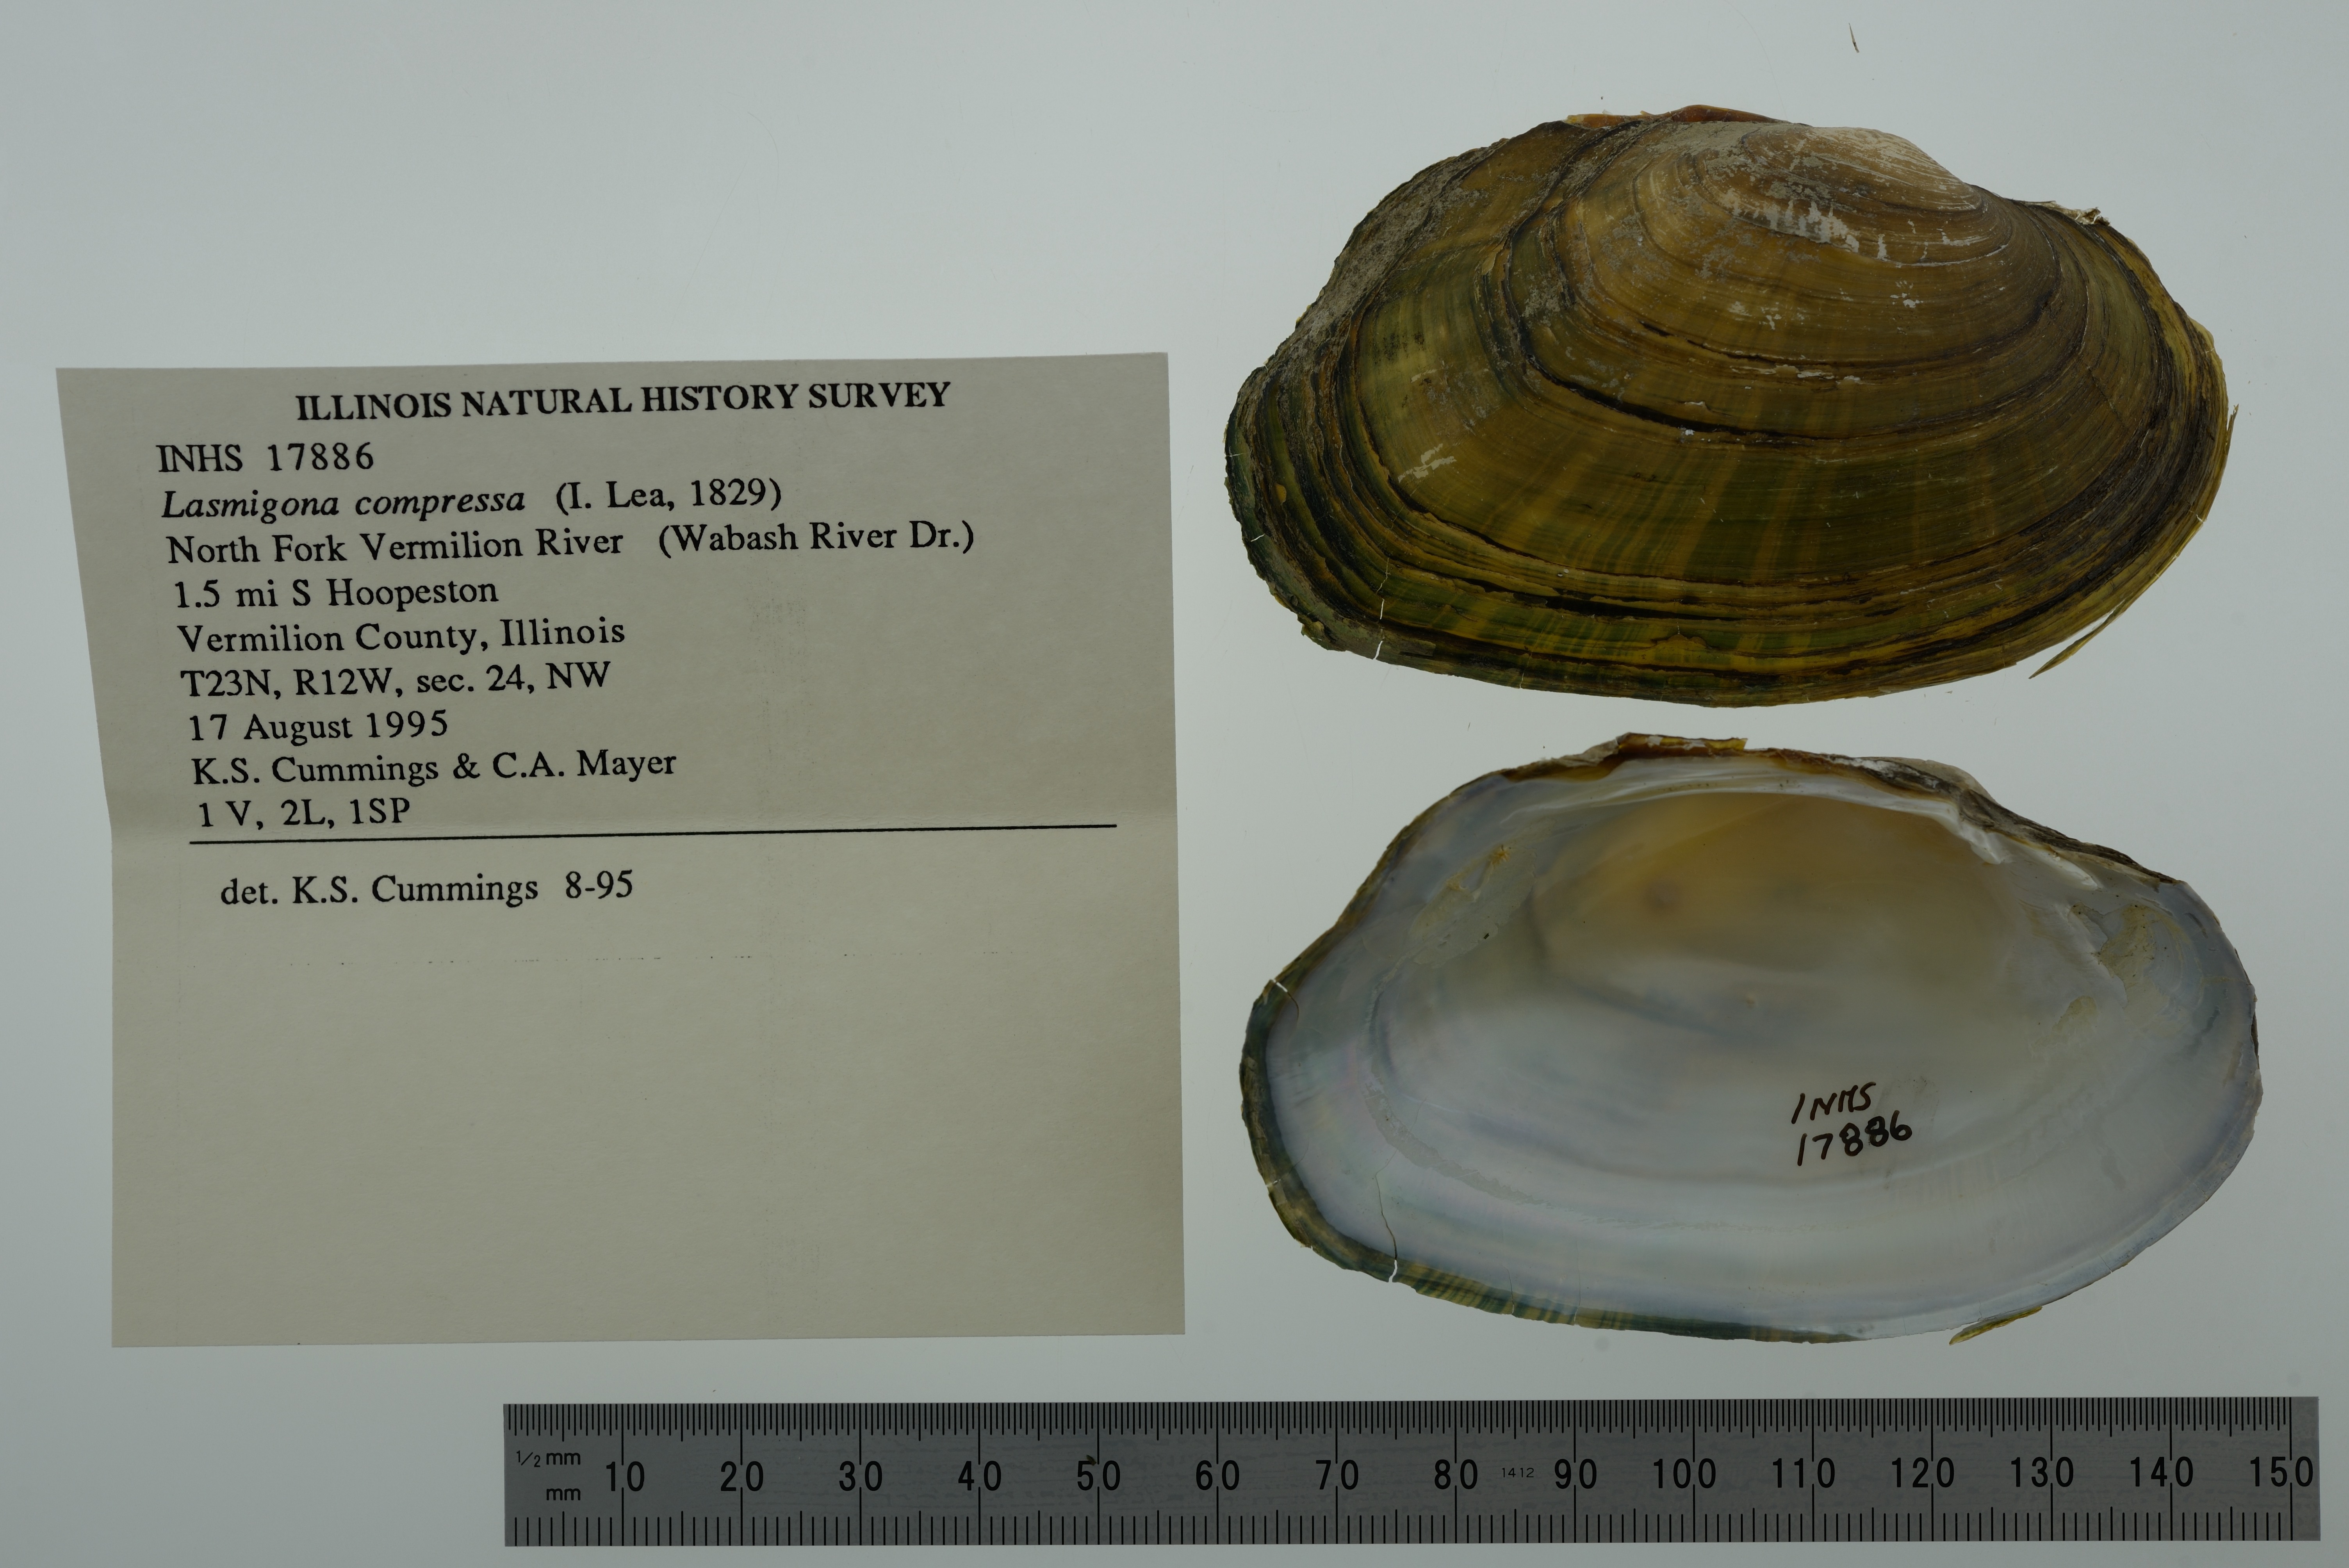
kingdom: Animalia
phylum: Mollusca
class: Bivalvia
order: Unionida
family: Unionidae
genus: Lasmigona
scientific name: Lasmigona compressa
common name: Creek heelsplitter
